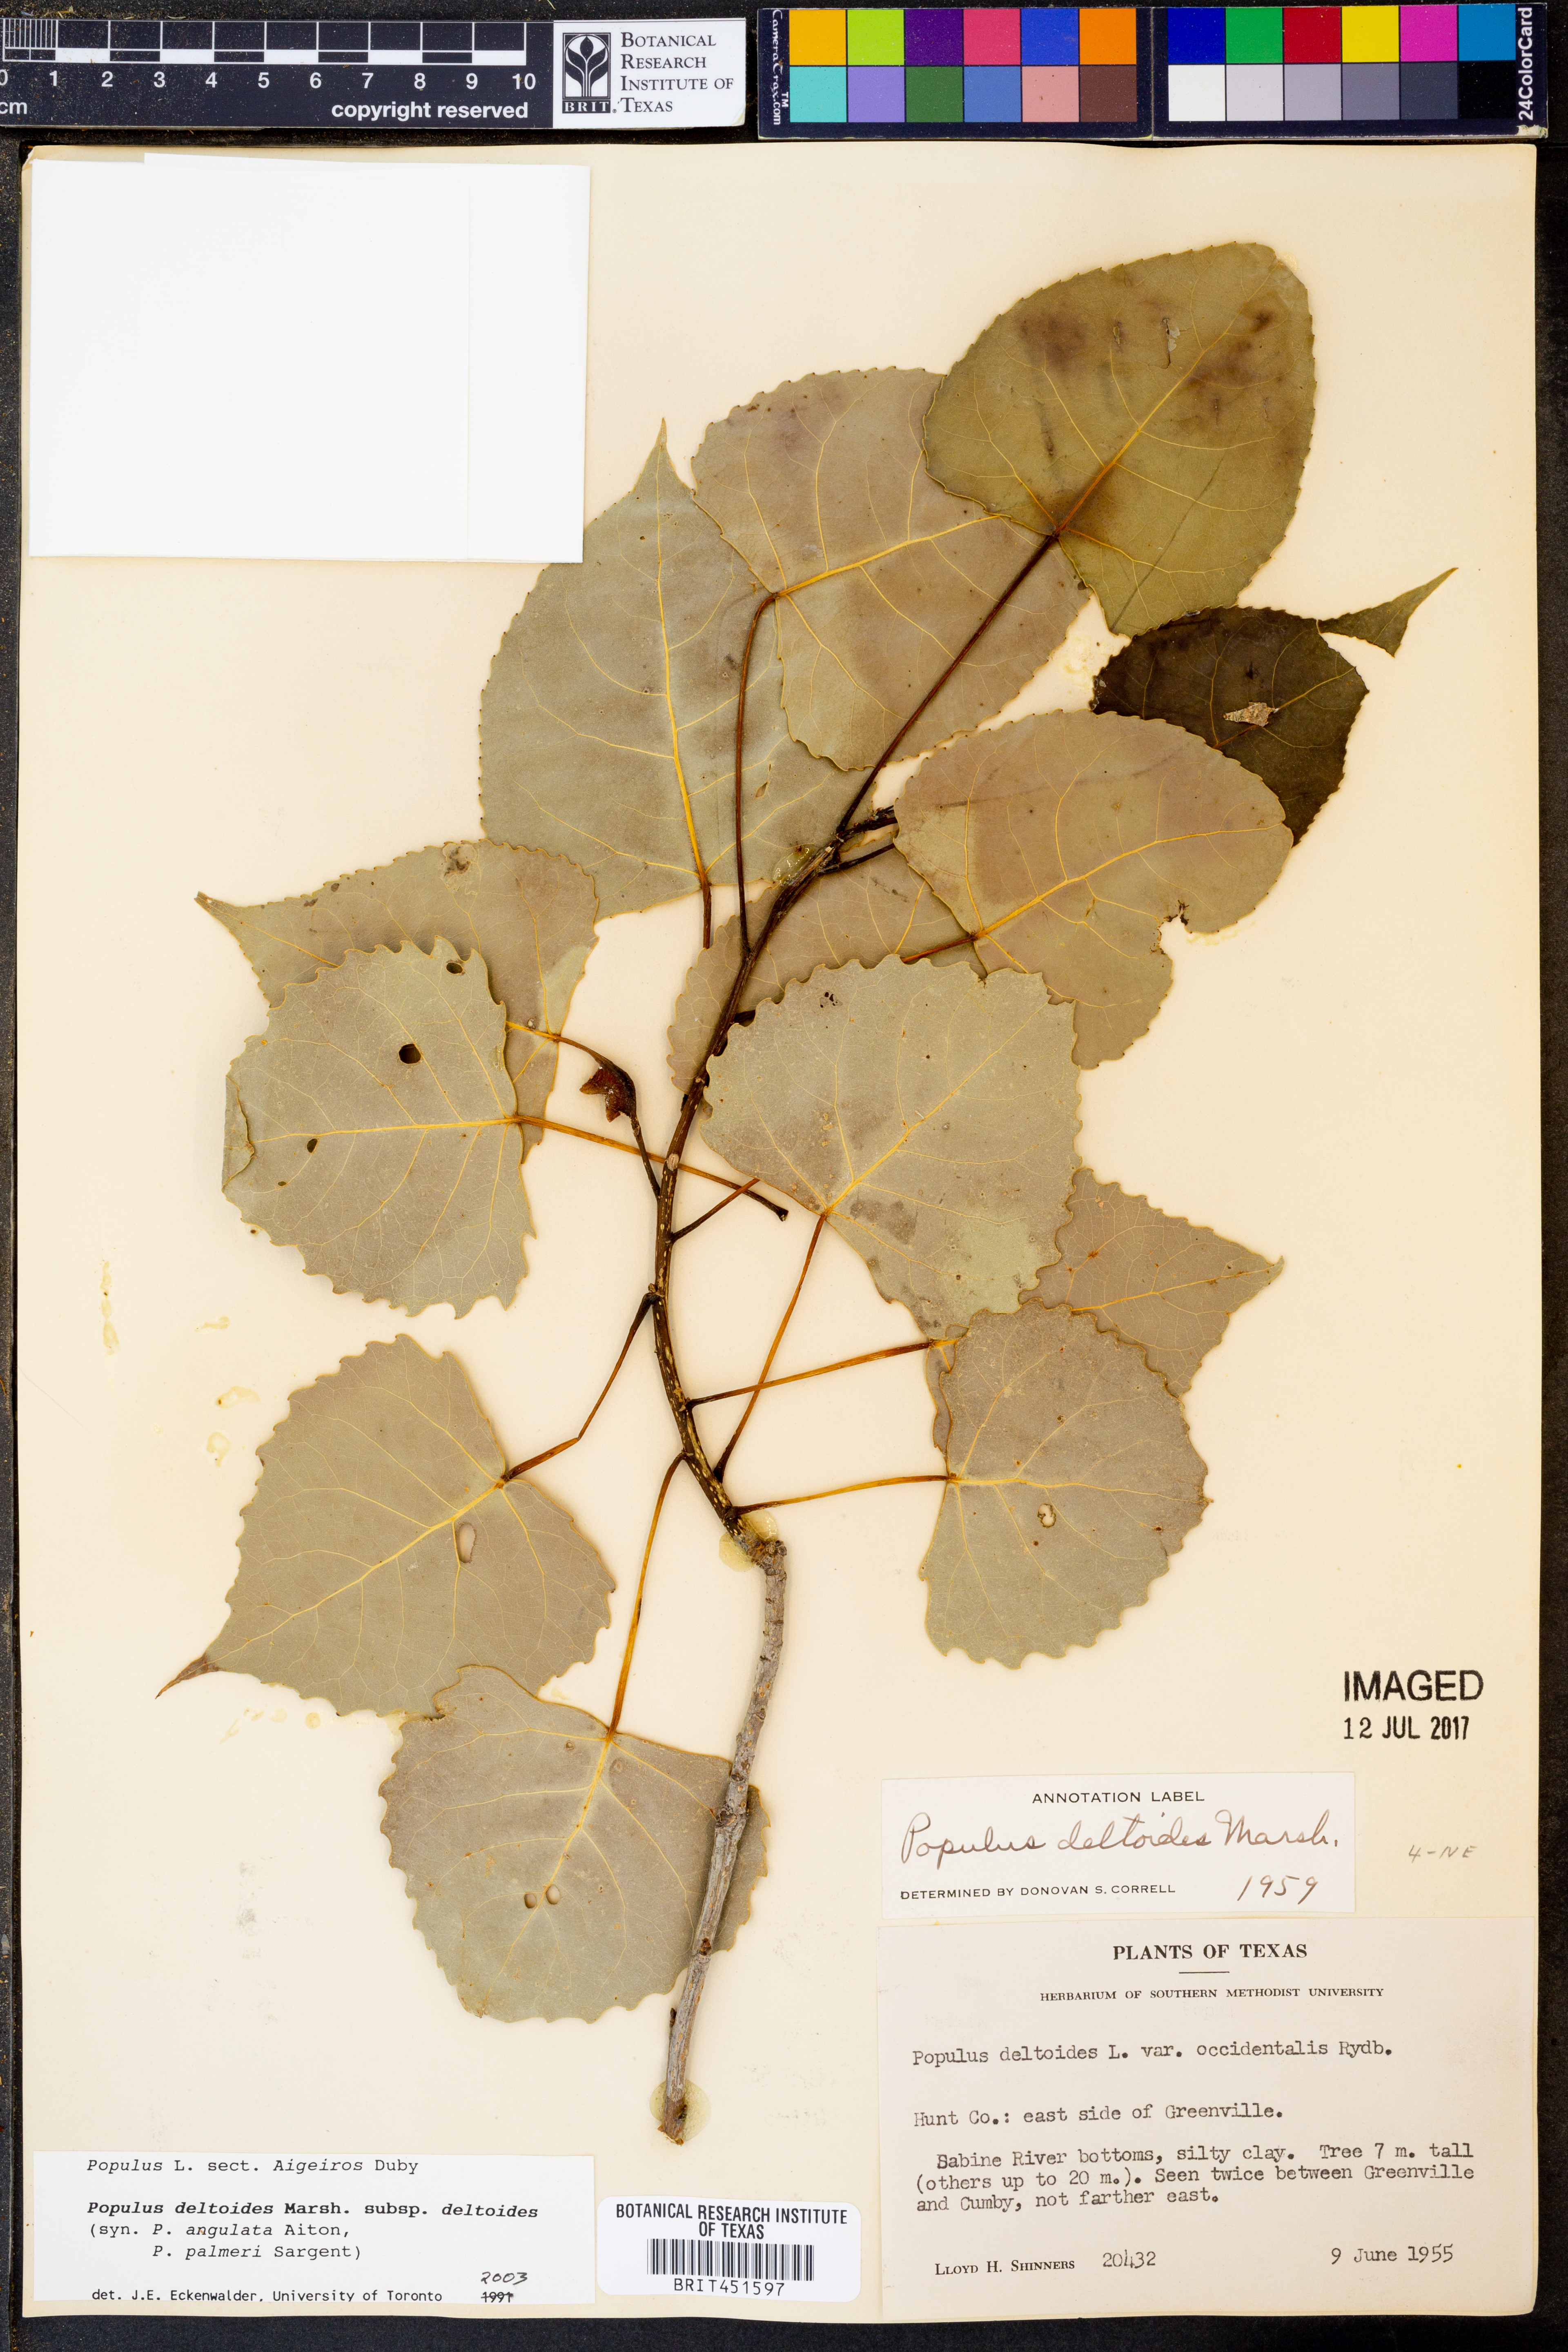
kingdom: Plantae
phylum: Tracheophyta
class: Magnoliopsida
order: Malpighiales
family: Salicaceae
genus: Populus
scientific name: Populus deltoides
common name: Eastern cottonwood
